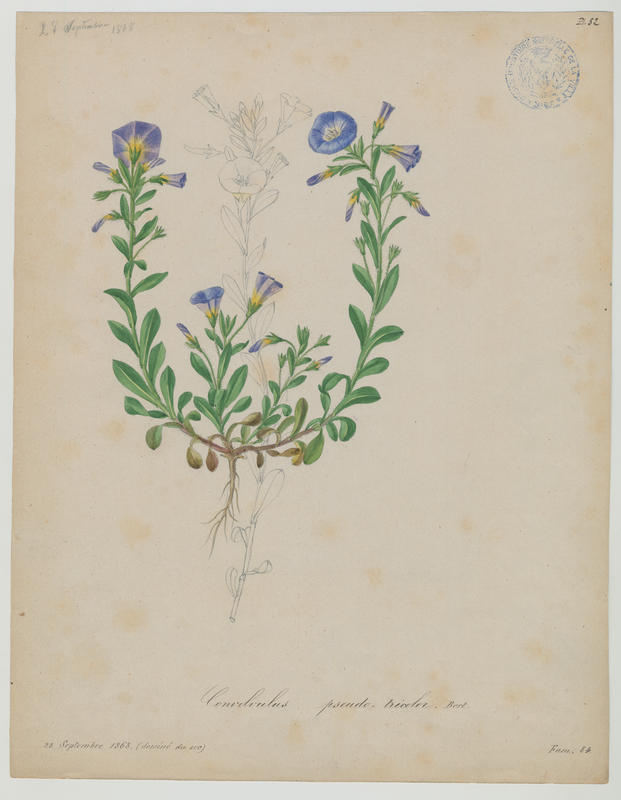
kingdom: Plantae
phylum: Tracheophyta
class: Magnoliopsida
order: Solanales
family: Convolvulaceae
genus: Convolvulus
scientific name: Convolvulus tricolor
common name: Dwarf morning-glory
